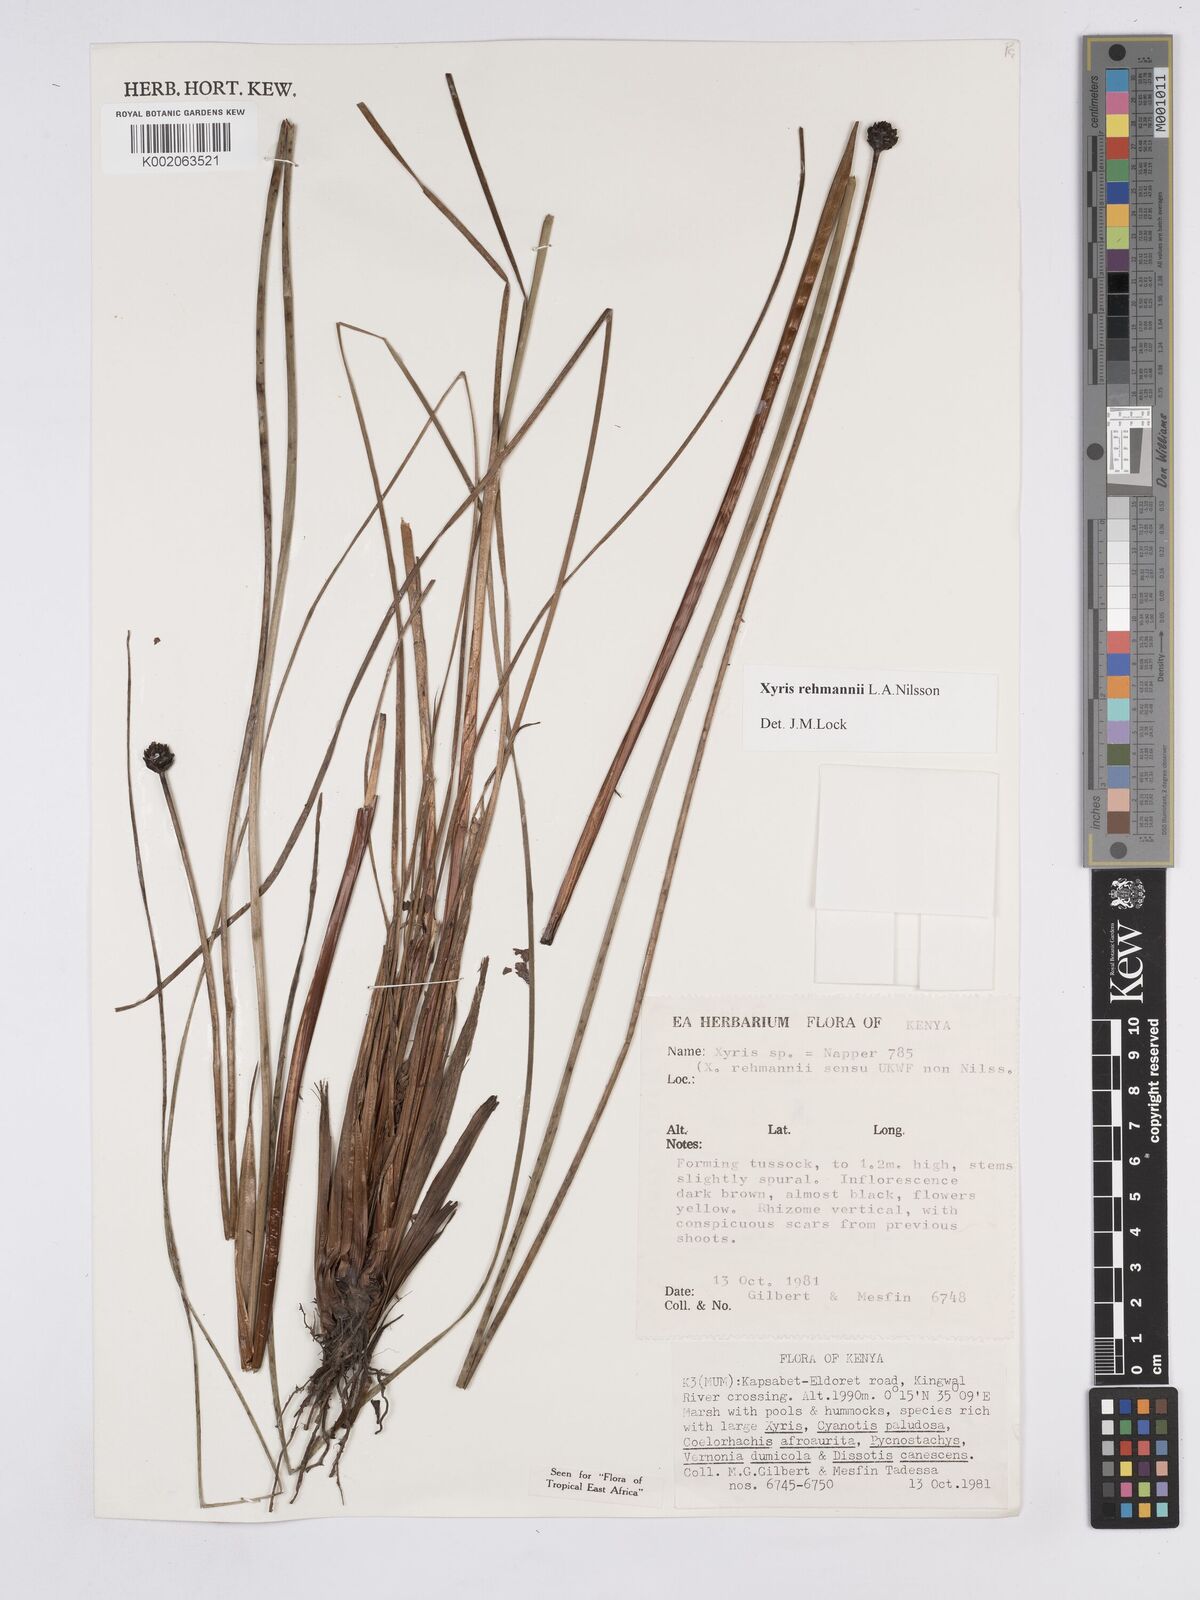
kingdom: Plantae
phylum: Tracheophyta
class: Liliopsida
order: Poales
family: Xyridaceae
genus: Xyris
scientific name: Xyris rehmannii
